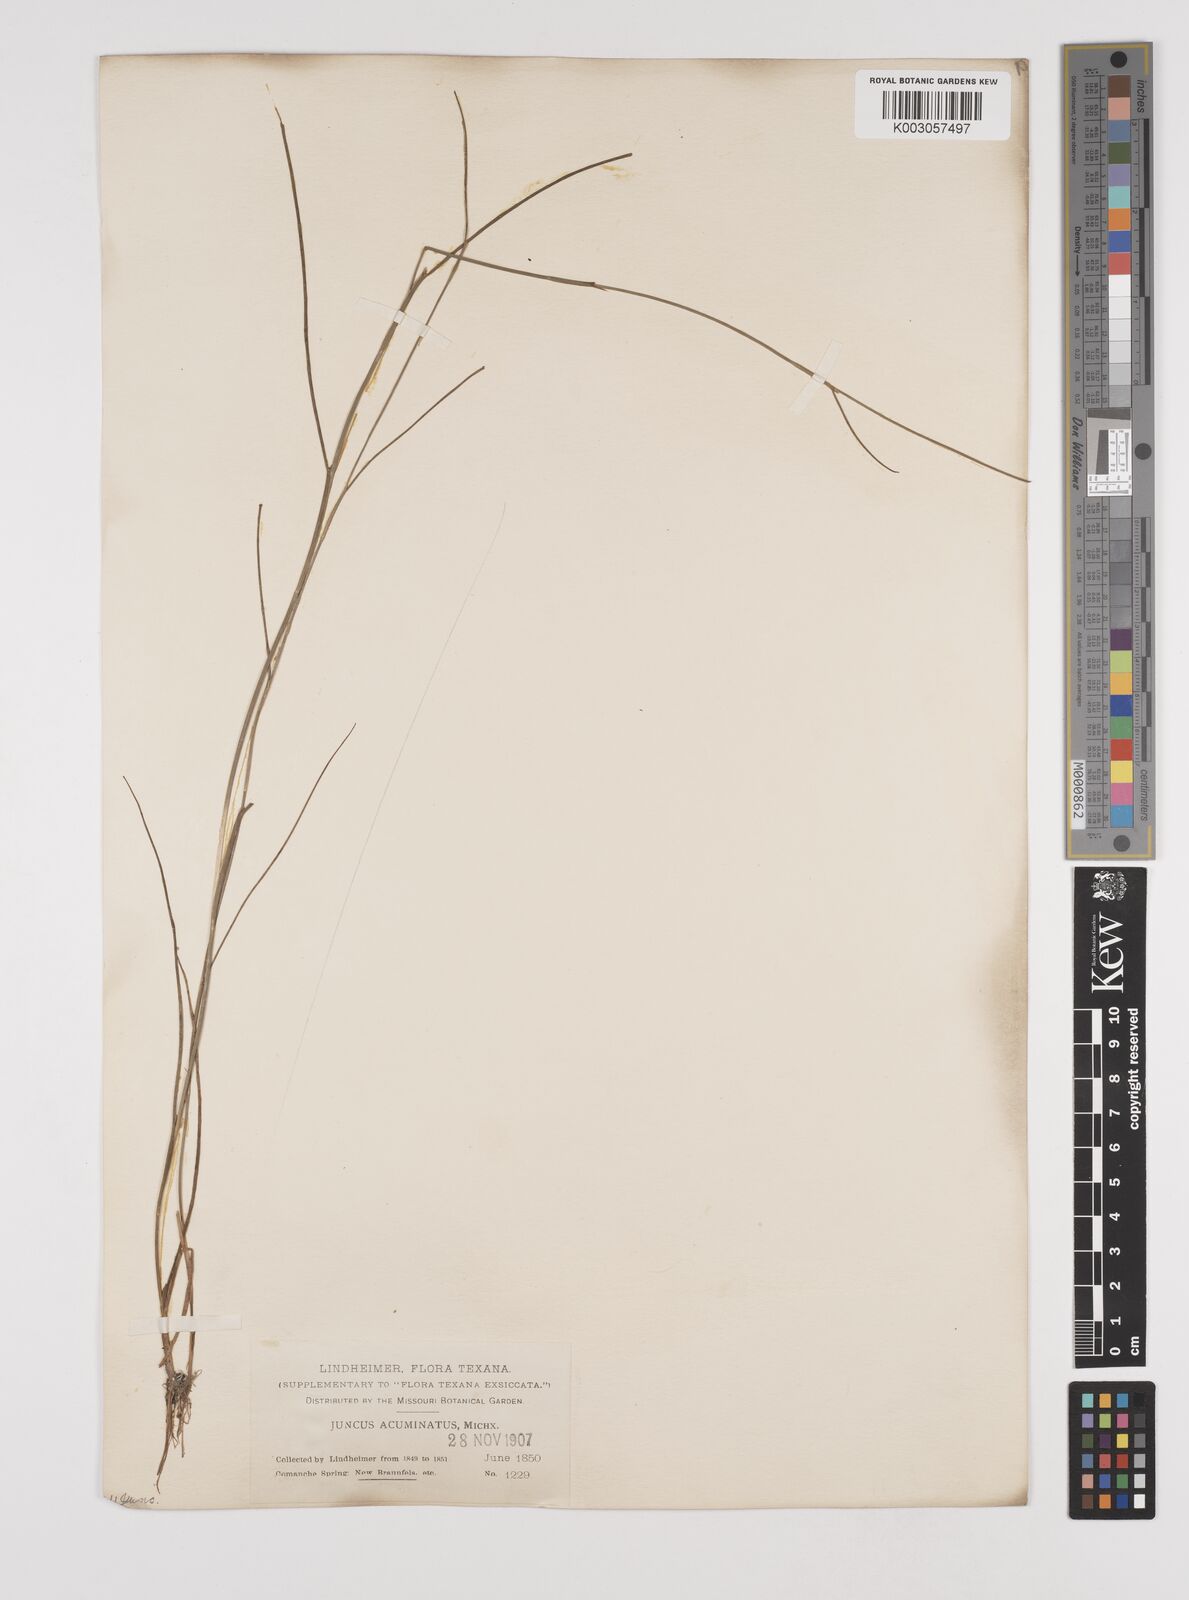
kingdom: Plantae
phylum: Tracheophyta
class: Liliopsida
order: Poales
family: Juncaceae
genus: Juncus
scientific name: Juncus acuminatus
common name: Knotty-leaved rush
